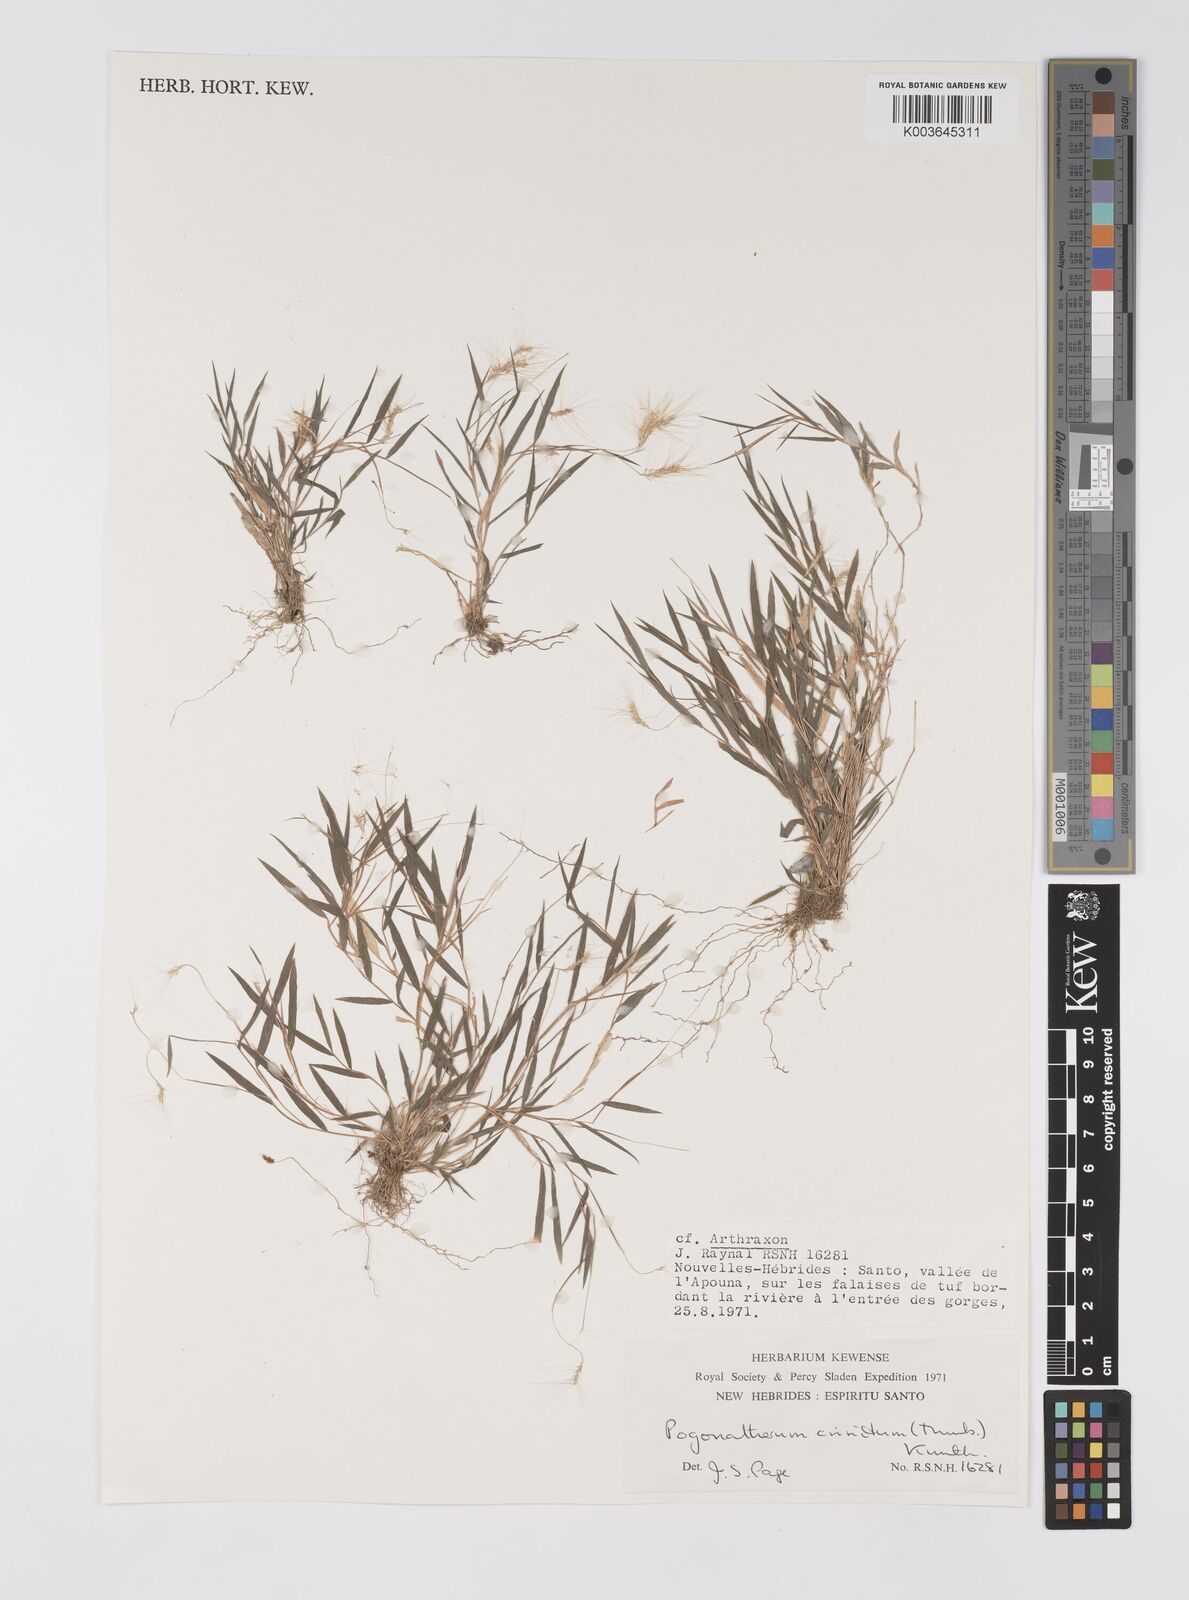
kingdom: Plantae
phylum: Tracheophyta
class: Liliopsida
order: Poales
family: Poaceae
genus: Pogonatherum
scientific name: Pogonatherum crinitum
